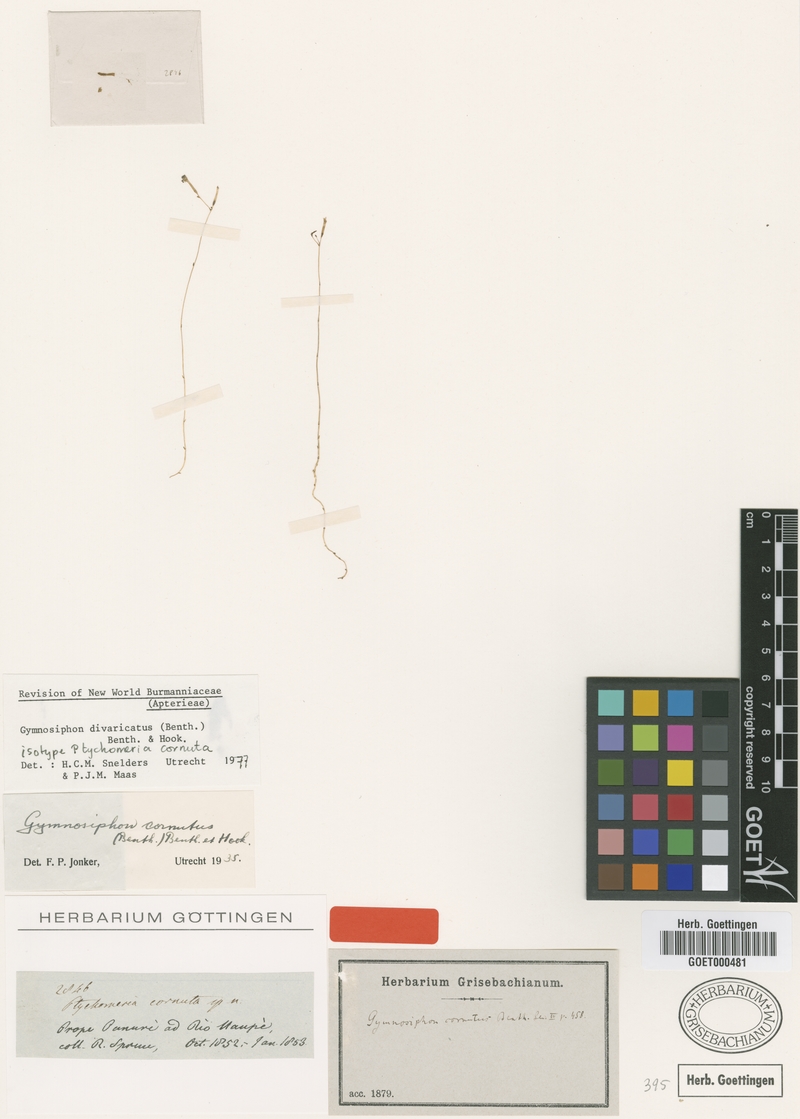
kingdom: Plantae
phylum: Tracheophyta
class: Liliopsida
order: Dioscoreales
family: Burmanniaceae
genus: Gymnosiphon
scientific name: Gymnosiphon divaricatus
